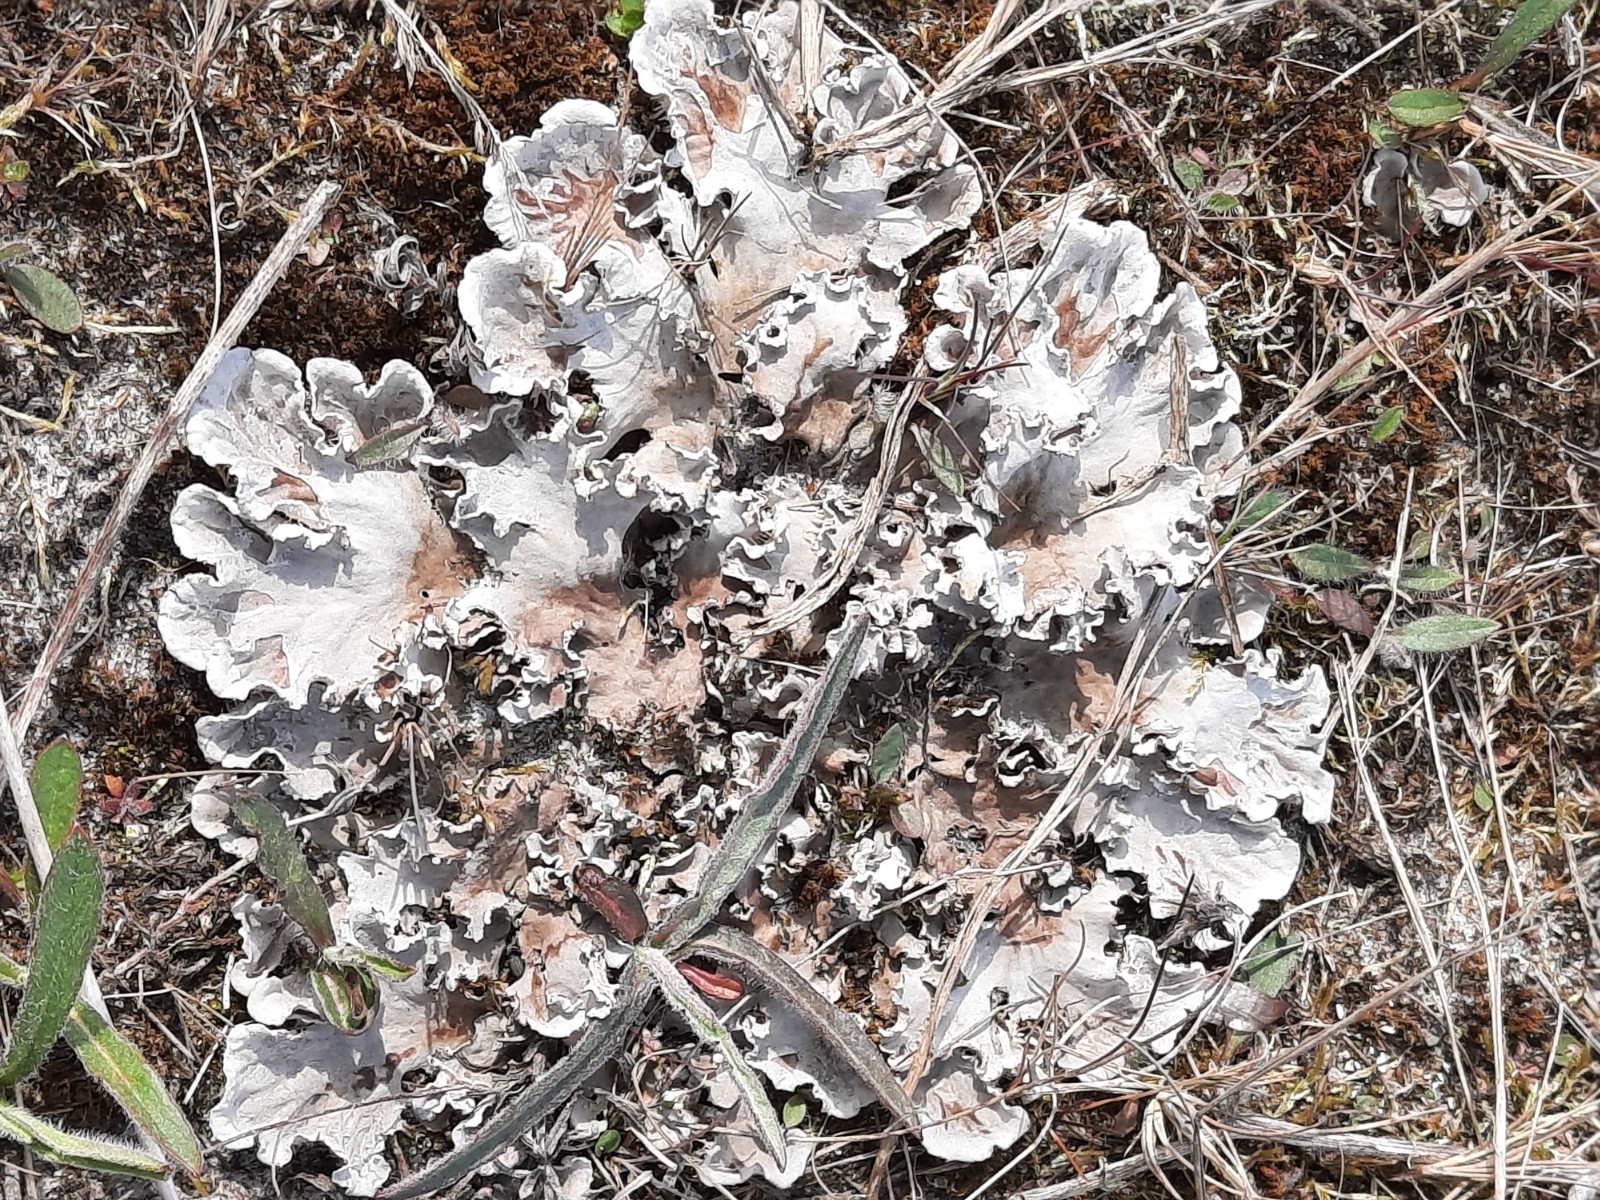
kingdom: Fungi
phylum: Ascomycota
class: Lecanoromycetes
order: Peltigerales
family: Peltigeraceae
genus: Peltigera
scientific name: Peltigera canina
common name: hunde-skjoldlav
